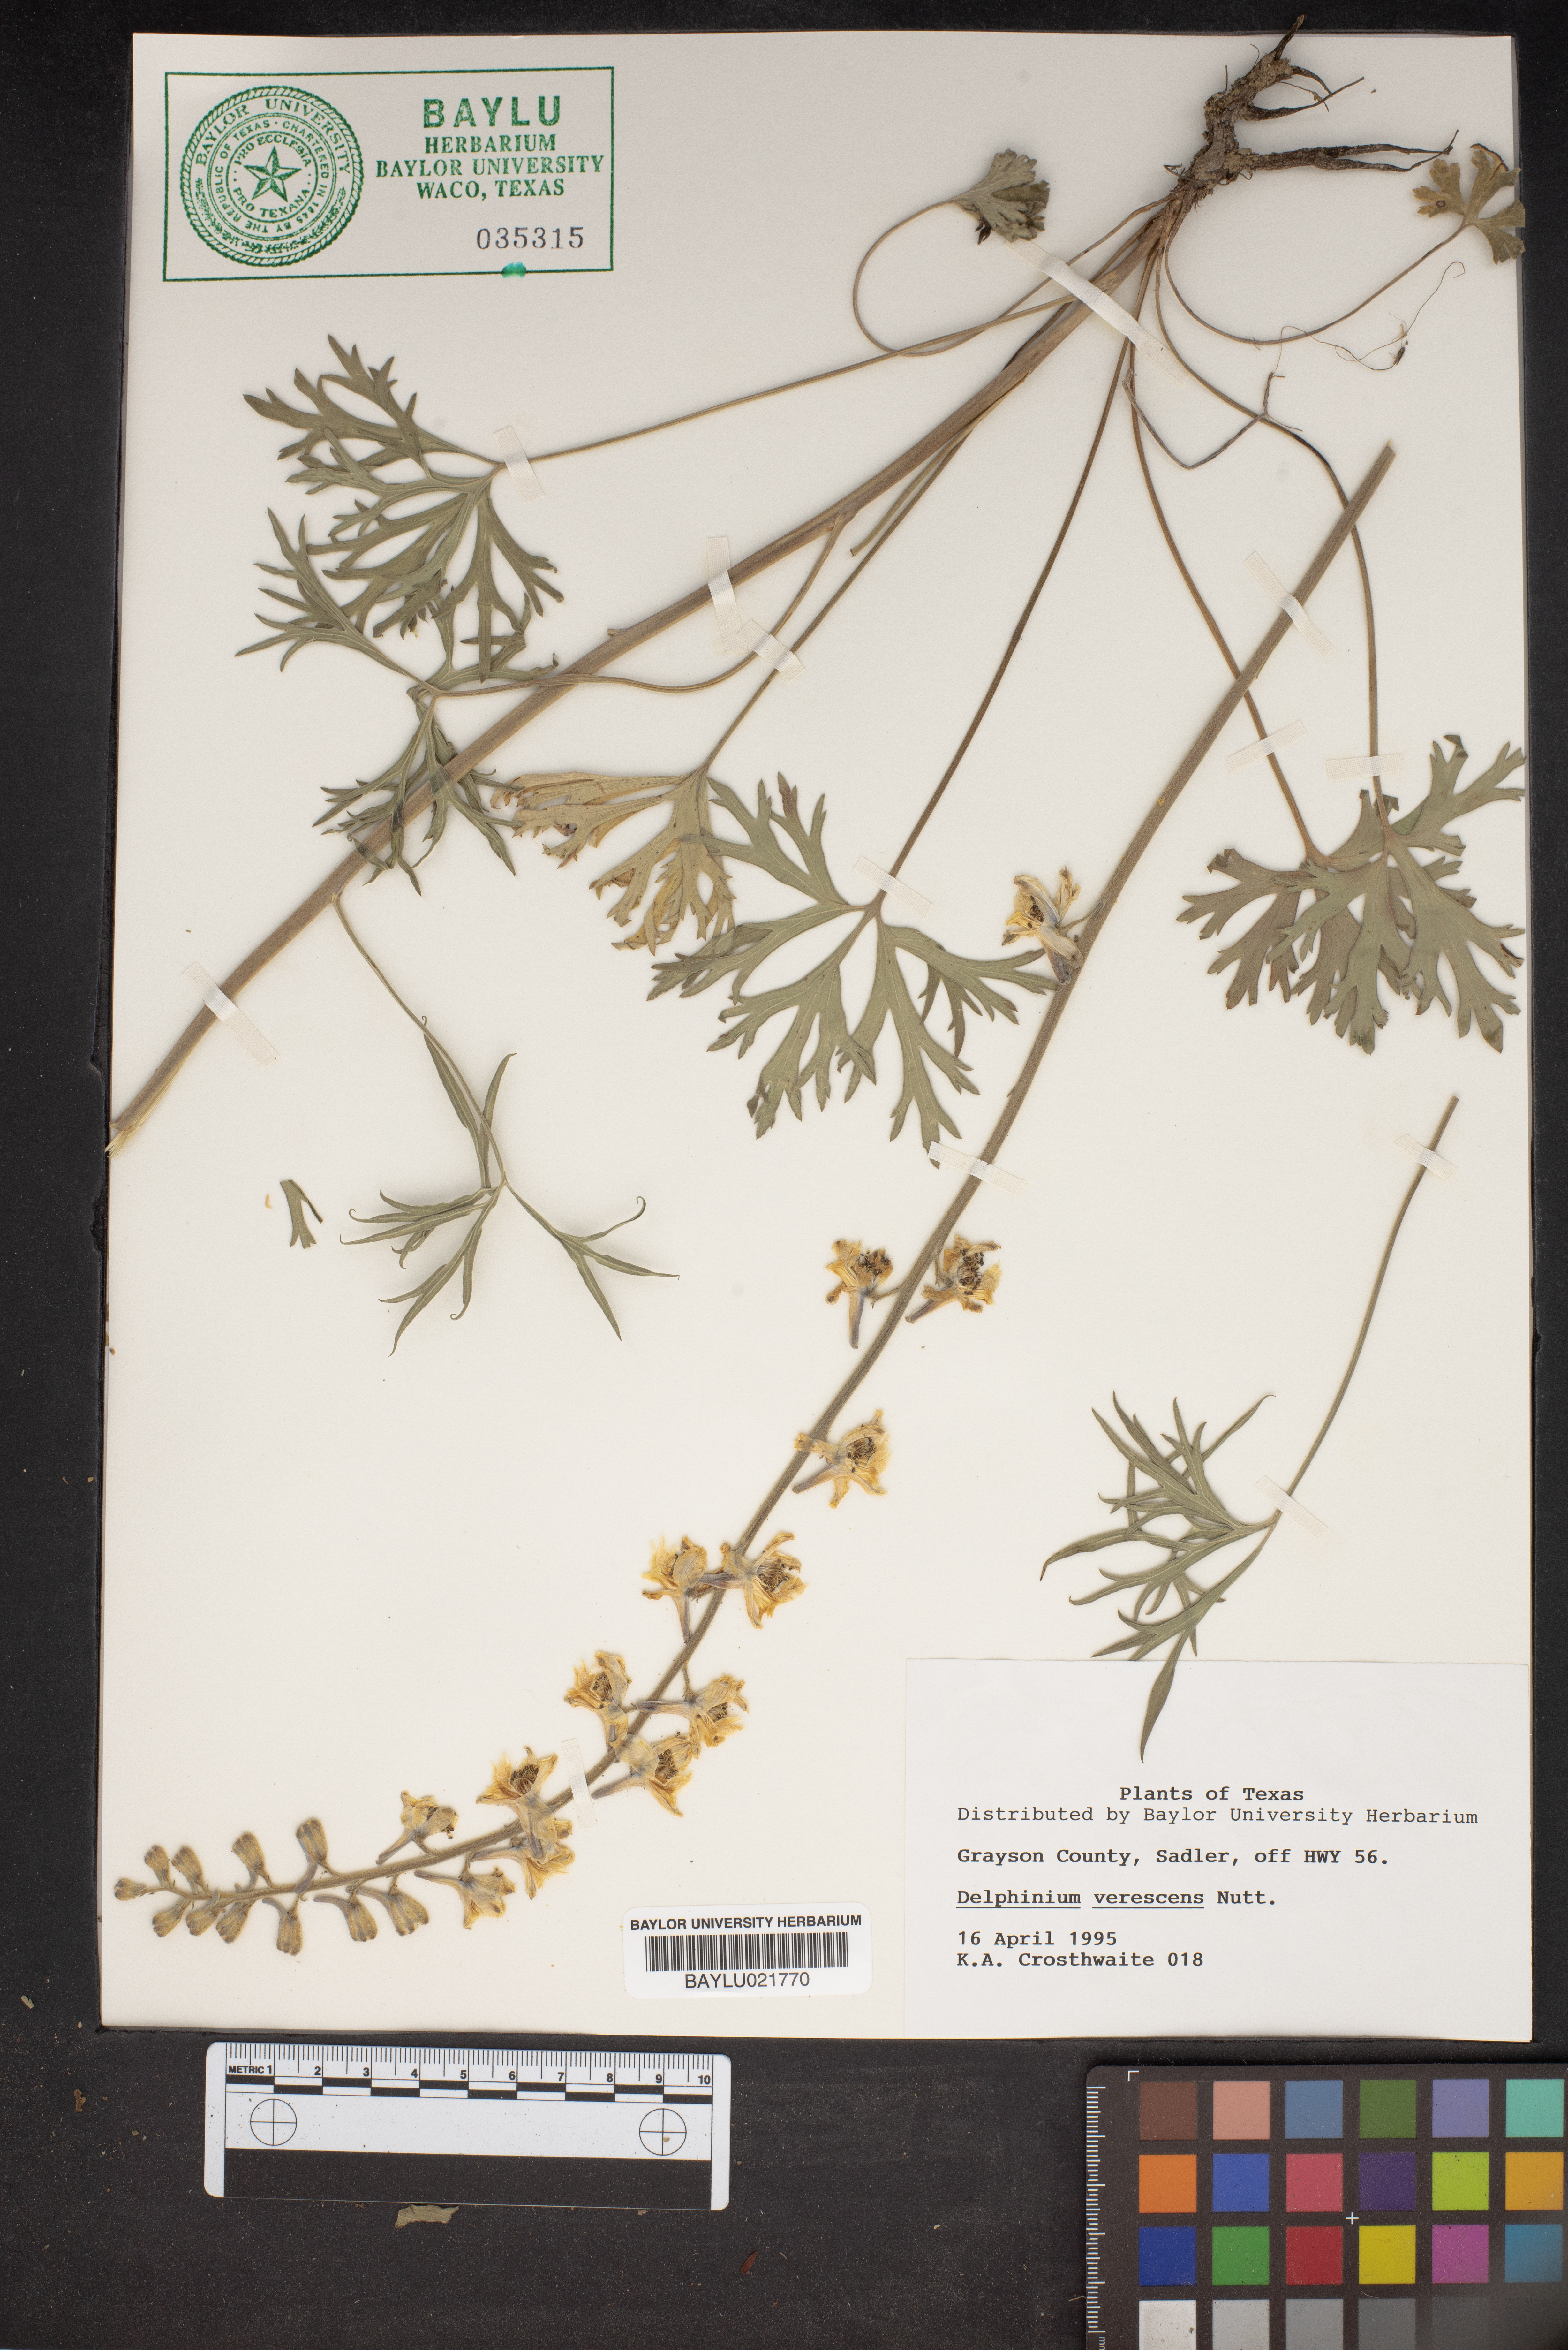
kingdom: Plantae
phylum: Tracheophyta
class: Magnoliopsida
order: Ranunculales
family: Ranunculaceae
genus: Delphinium
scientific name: Delphinium halteratum
